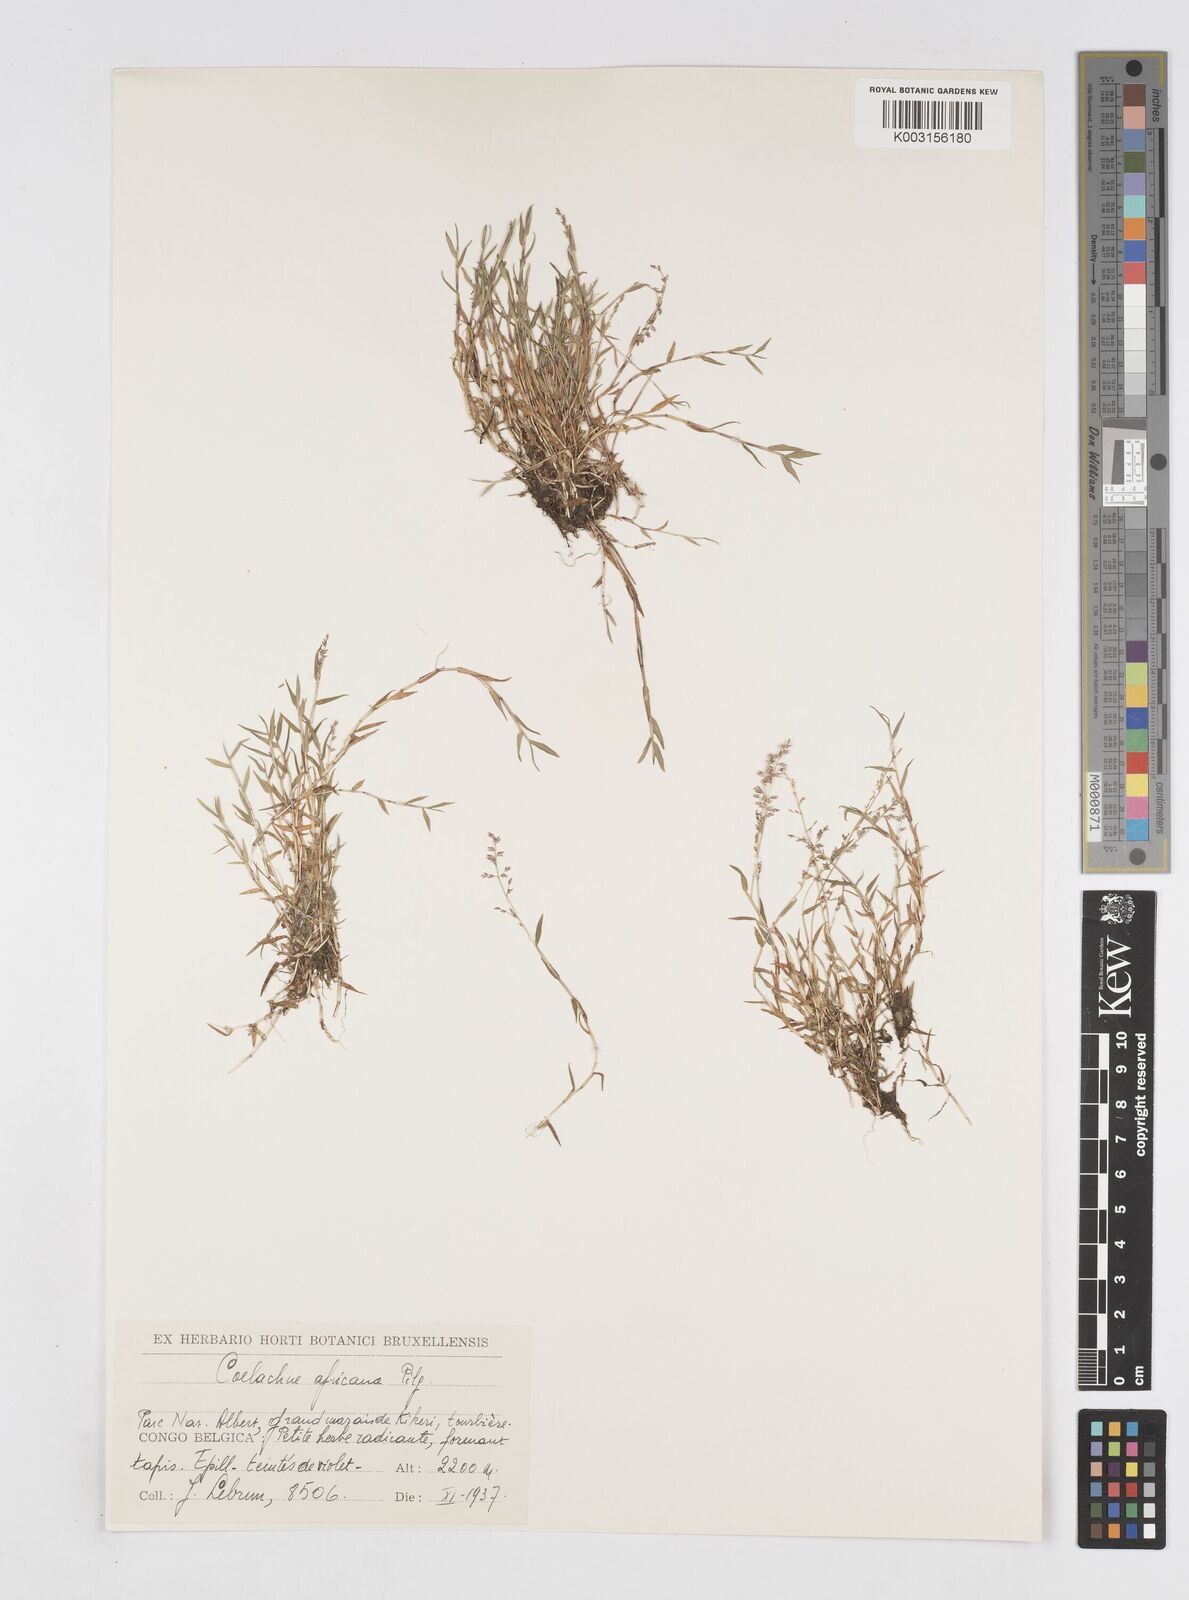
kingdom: Plantae
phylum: Tracheophyta
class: Liliopsida
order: Poales
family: Poaceae
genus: Coelachne
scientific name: Coelachne africana
